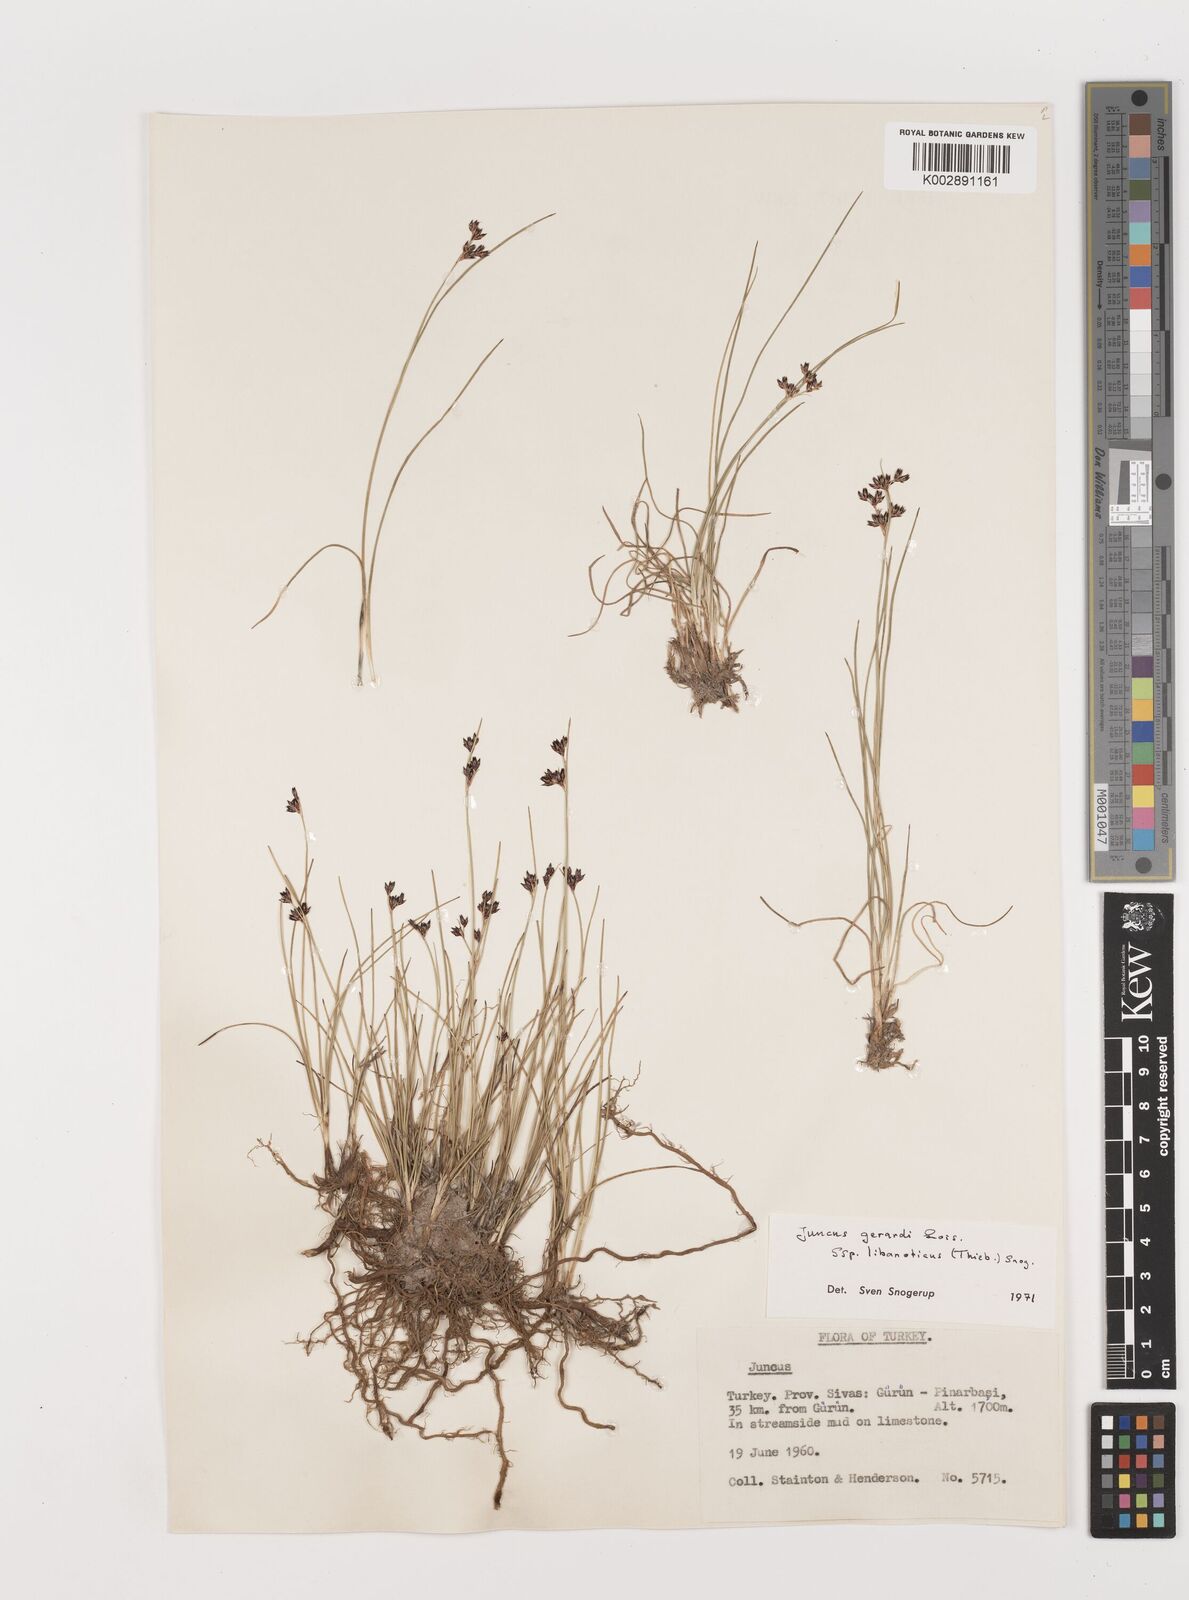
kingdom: Plantae
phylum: Tracheophyta
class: Liliopsida
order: Poales
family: Juncaceae
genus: Juncus
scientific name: Juncus persicus
